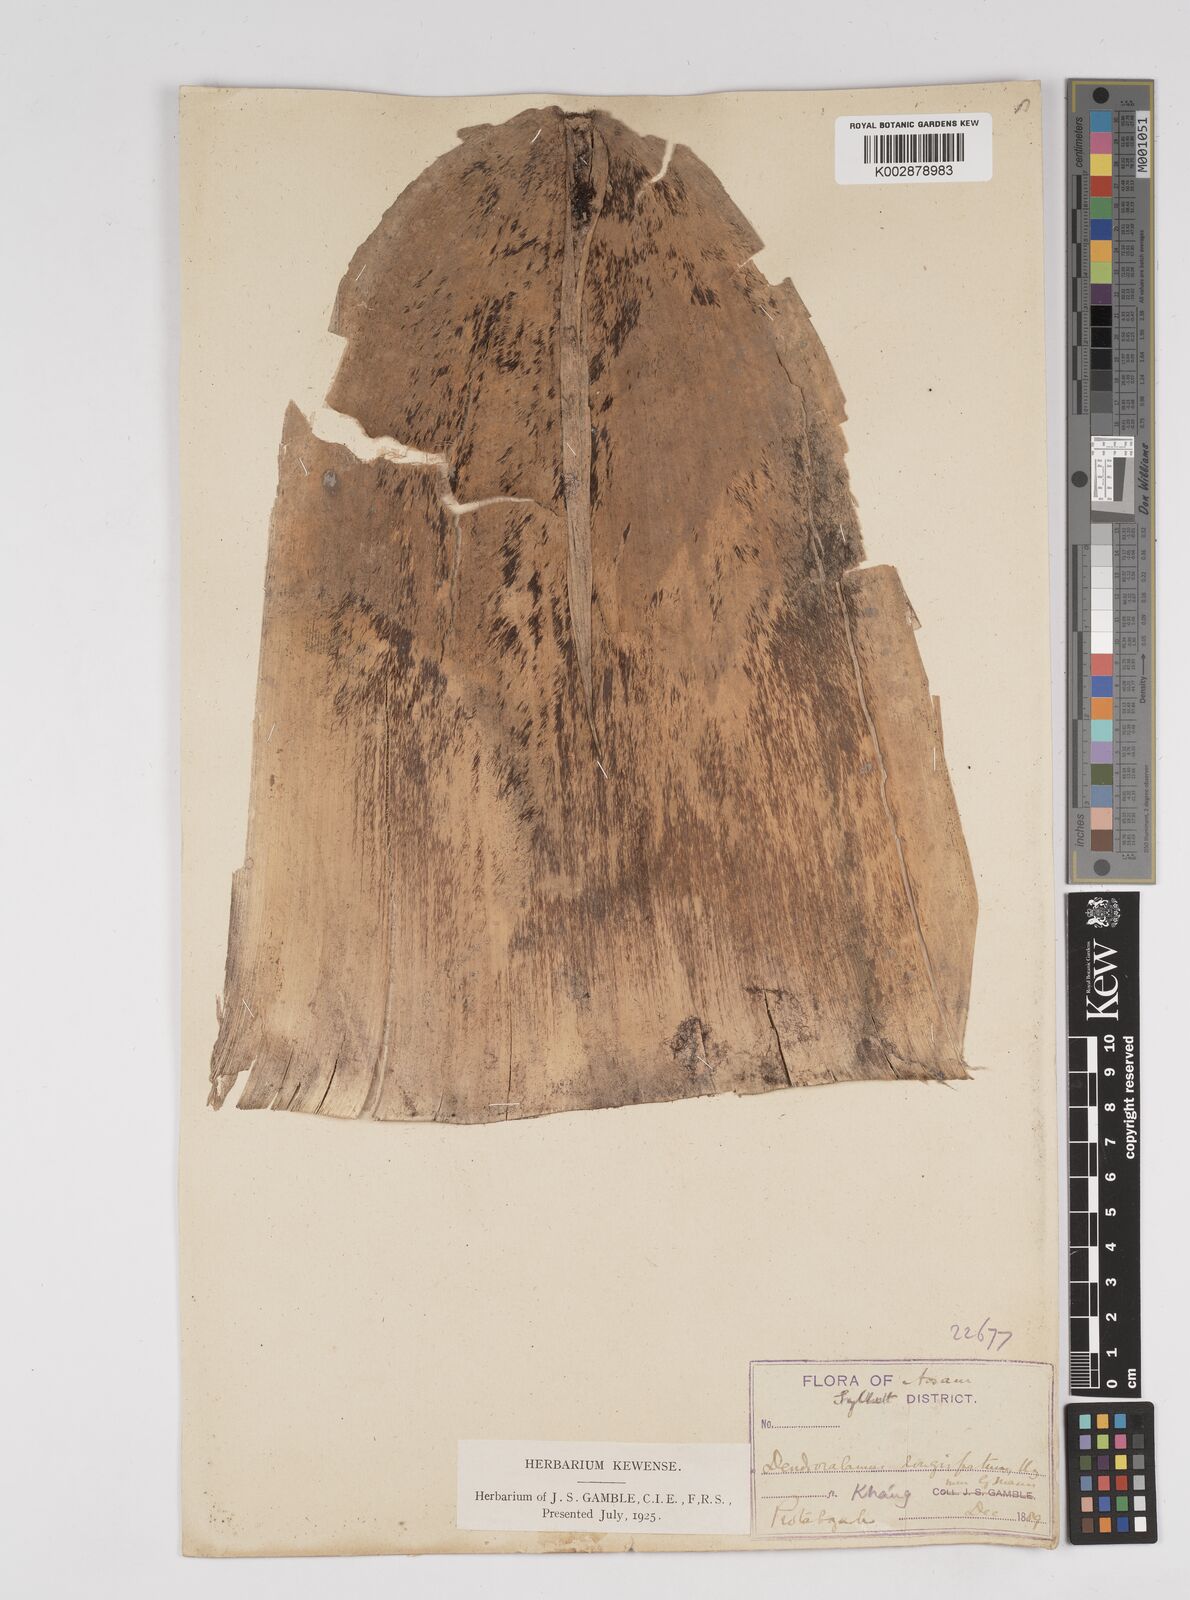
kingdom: Plantae
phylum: Tracheophyta
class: Liliopsida
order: Poales
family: Poaceae
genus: Dendrocalamus
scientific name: Dendrocalamus longispathus
